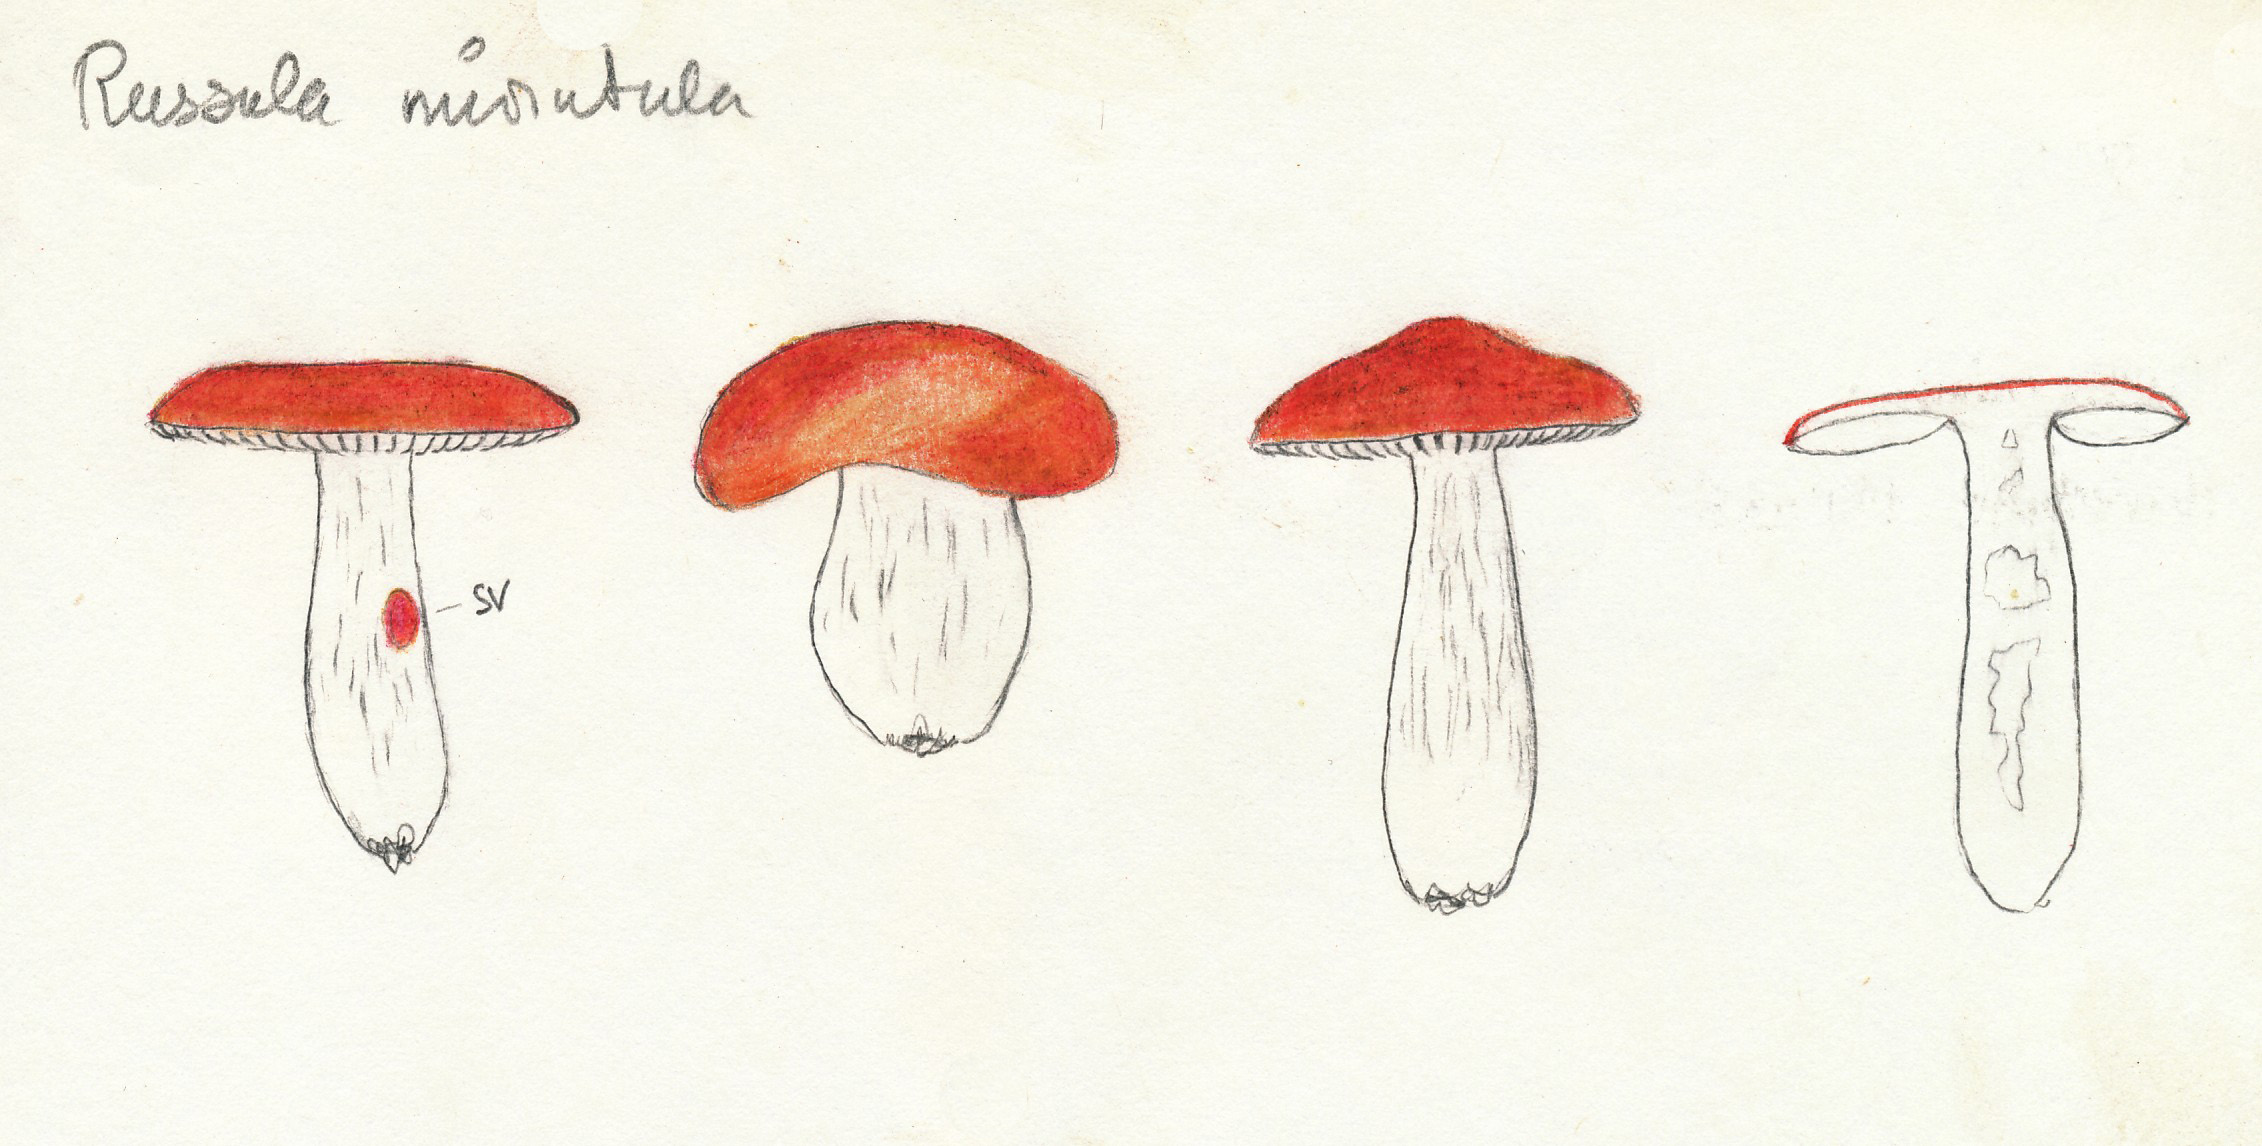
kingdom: Fungi
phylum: Basidiomycota
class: Agaricomycetes
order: Russulales
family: Russulaceae
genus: Russula
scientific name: Russula minutula
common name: liden skørhat
